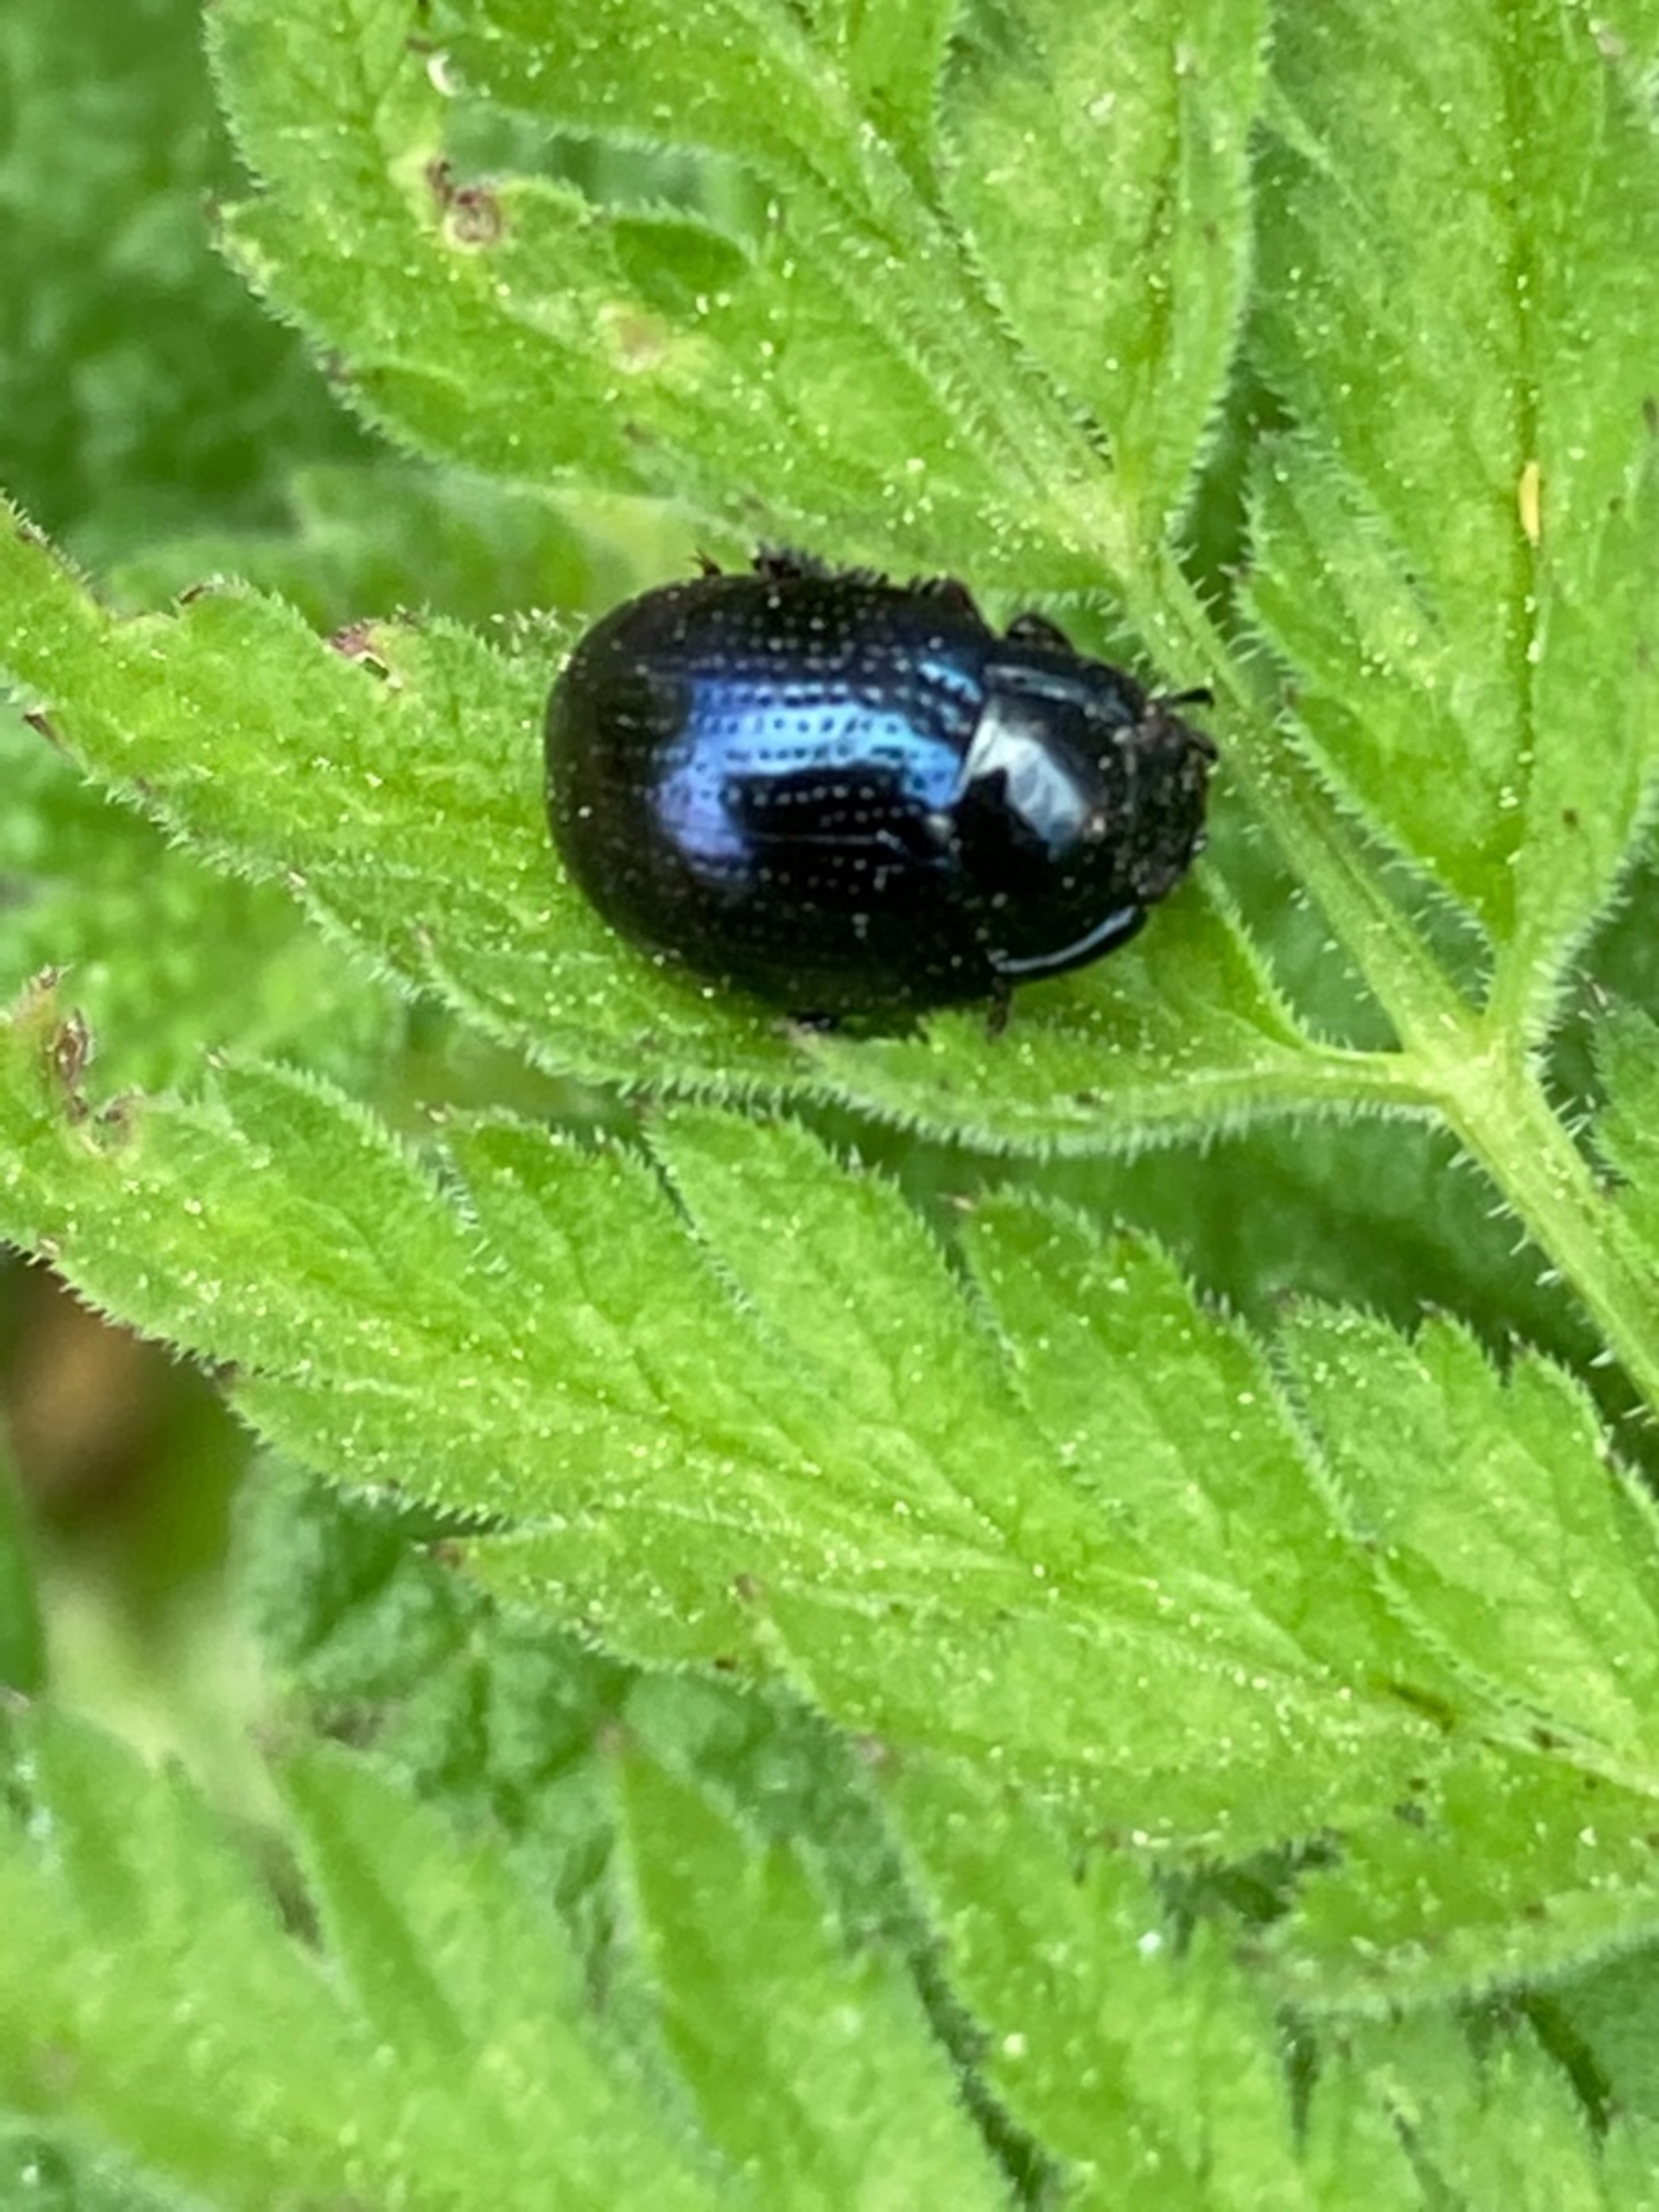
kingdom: Animalia
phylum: Arthropoda
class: Insecta
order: Coleoptera
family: Chrysomelidae
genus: Chrysolina
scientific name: Chrysolina oricalcia
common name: Rækkepunkteret guldbille
